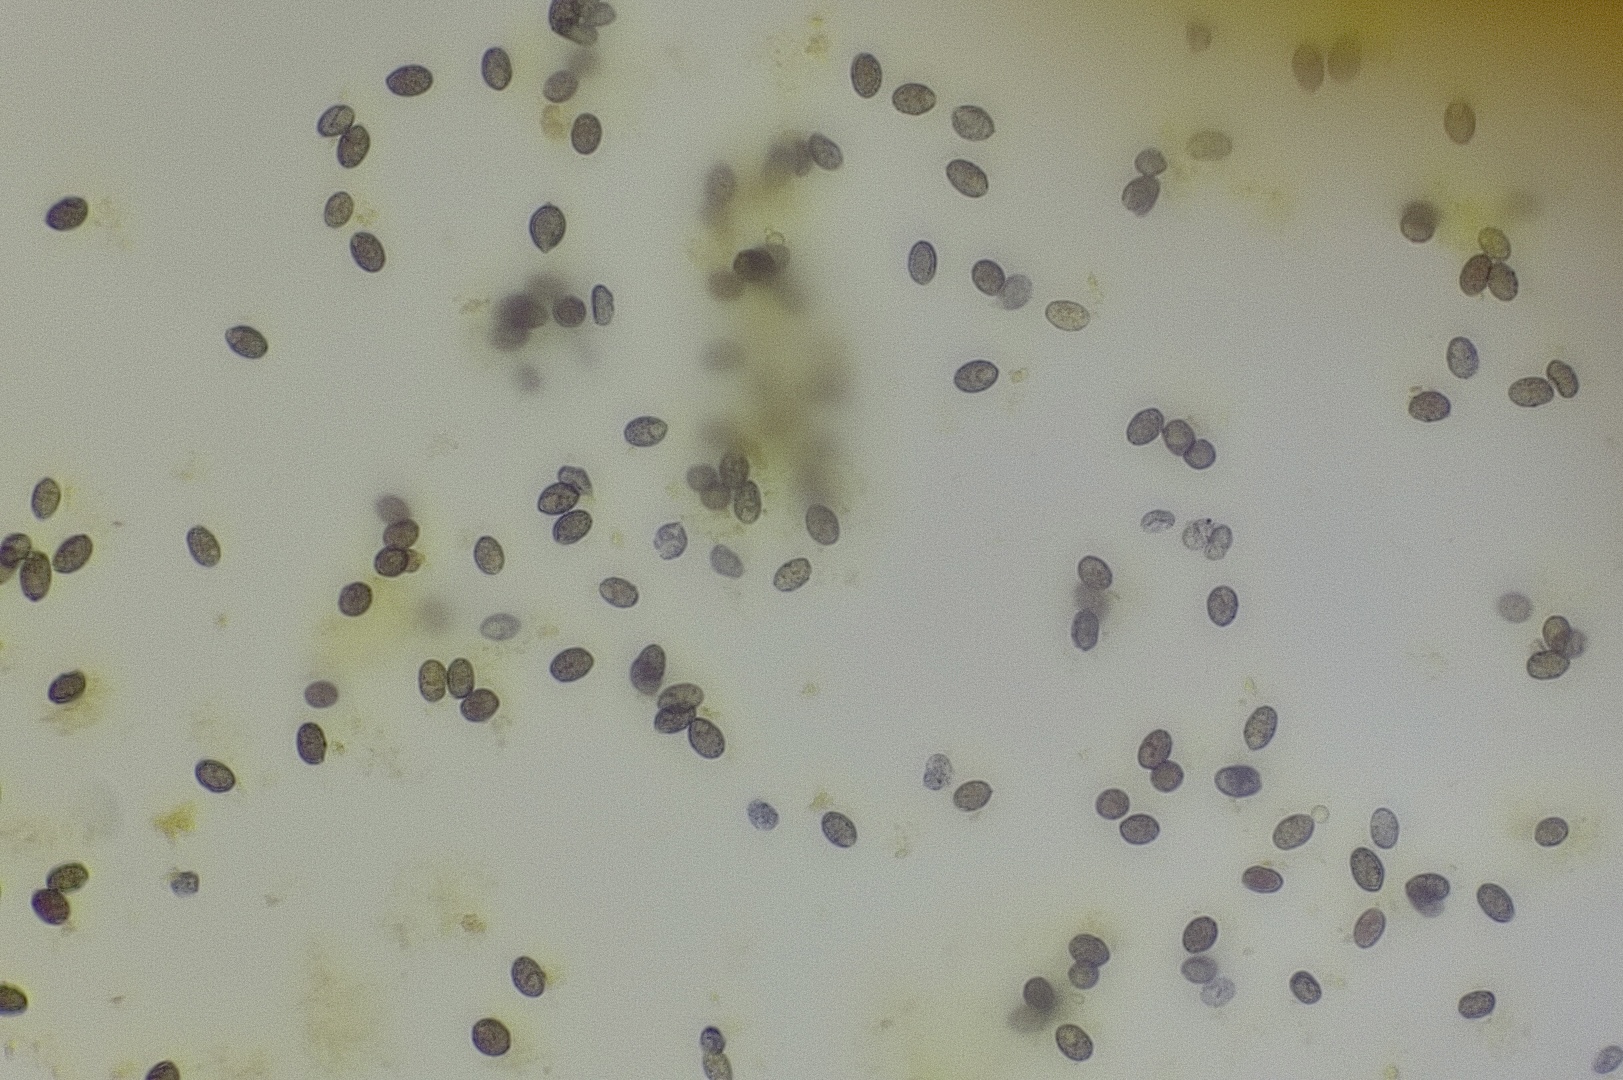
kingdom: Fungi
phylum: Basidiomycota
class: Agaricomycetes
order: Agaricales
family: Tricholomataceae
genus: Melanoleuca
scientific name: Melanoleuca
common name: munkehat
